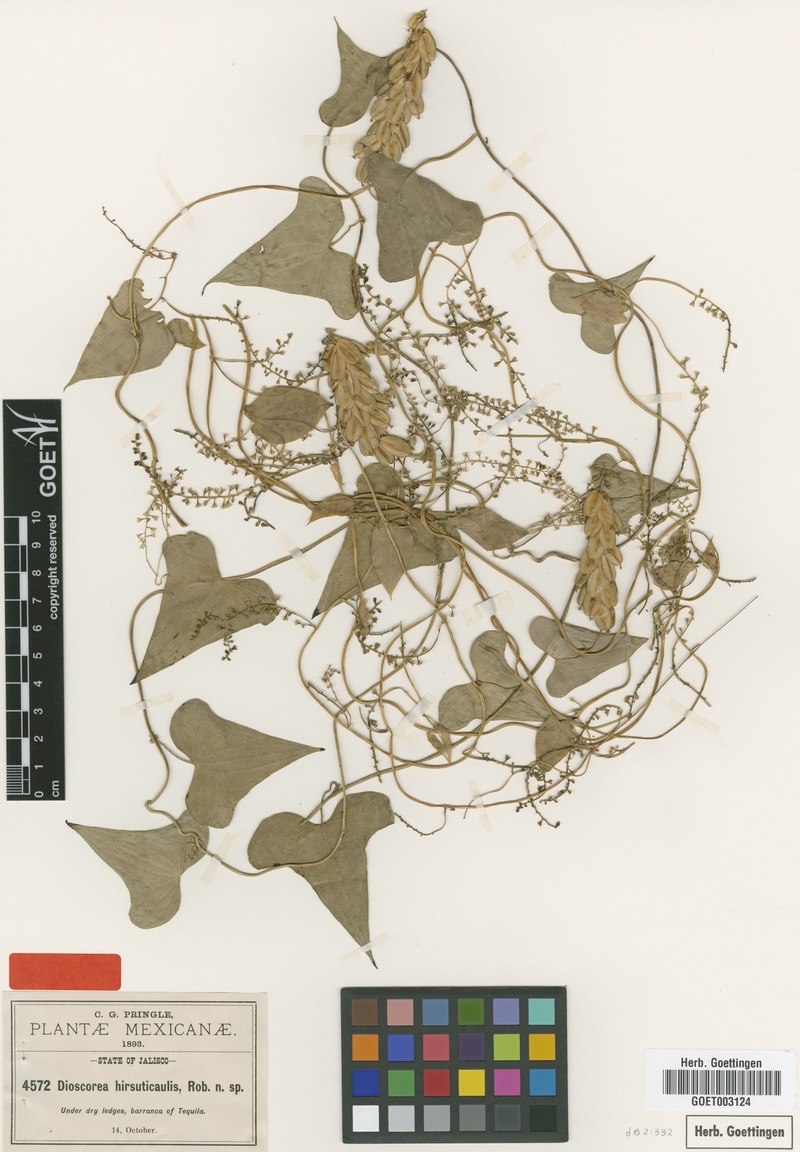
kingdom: Plantae
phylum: Tracheophyta
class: Liliopsida
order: Dioscoreales
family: Dioscoreaceae
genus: Dioscorea
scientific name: Dioscorea hirsuticaulis
